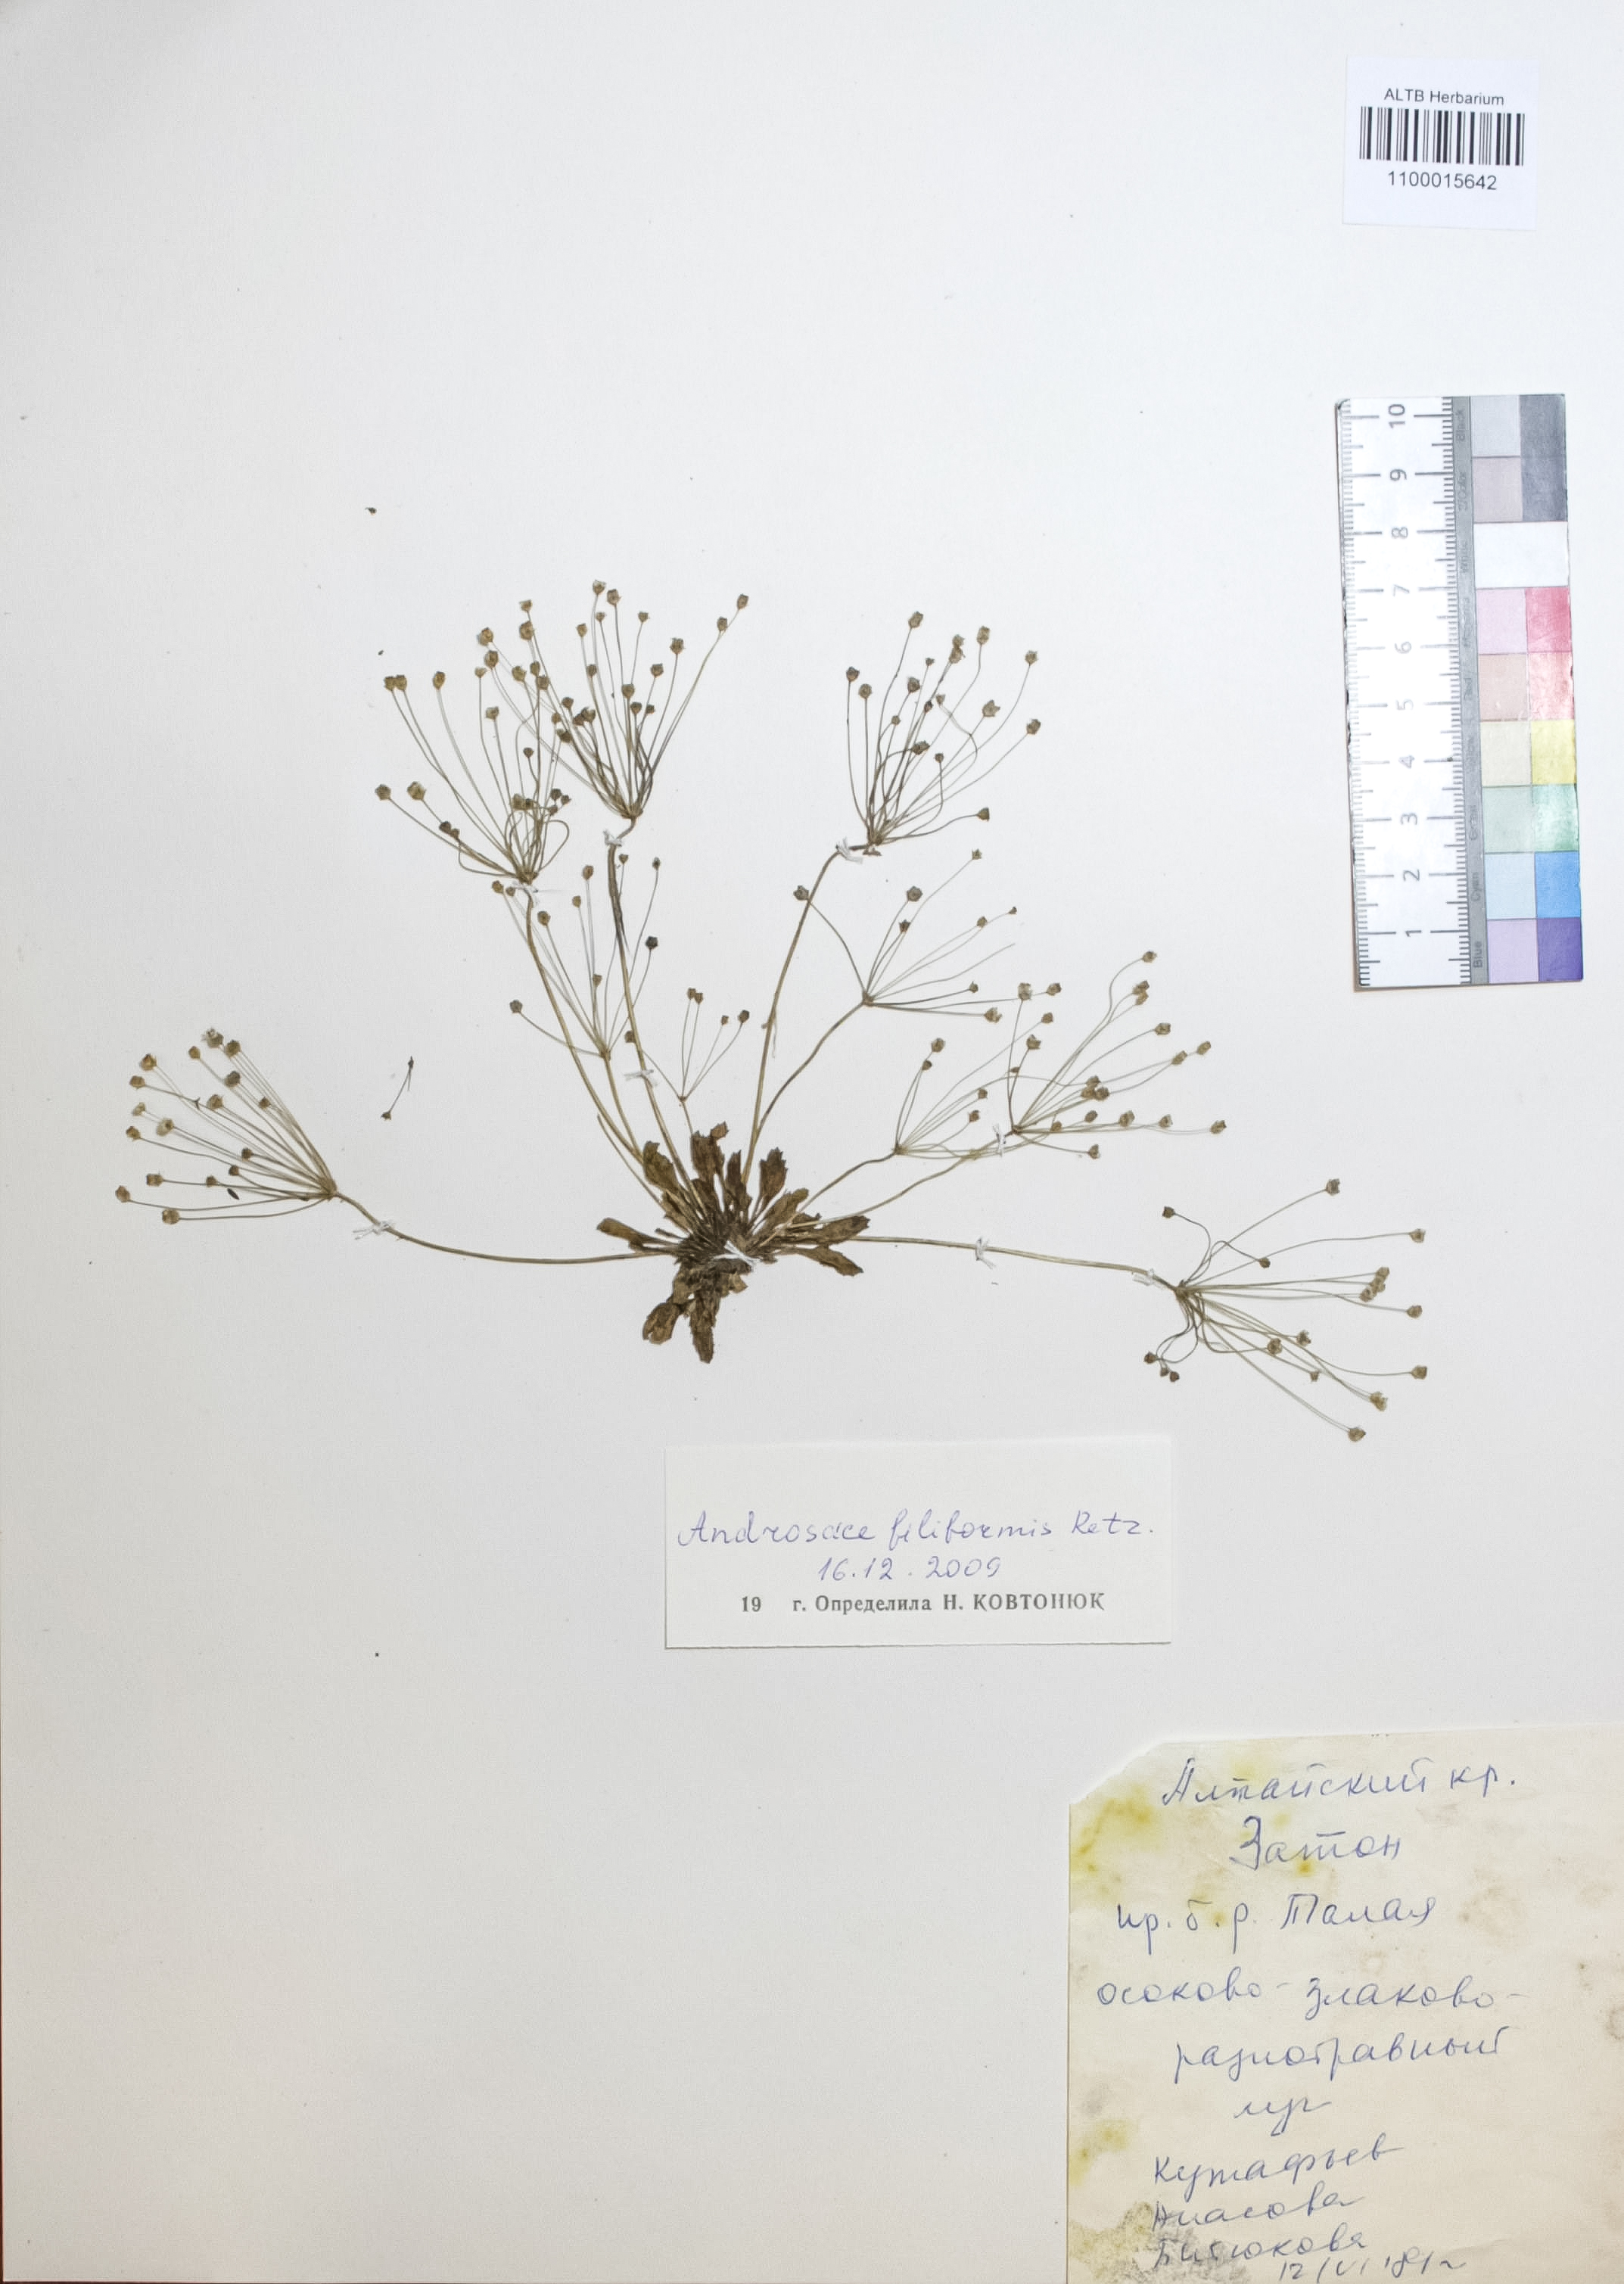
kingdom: Plantae
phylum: Tracheophyta
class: Magnoliopsida
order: Ericales
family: Primulaceae
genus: Androsace
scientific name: Androsace filiformis
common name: Filiform rock jasmine
